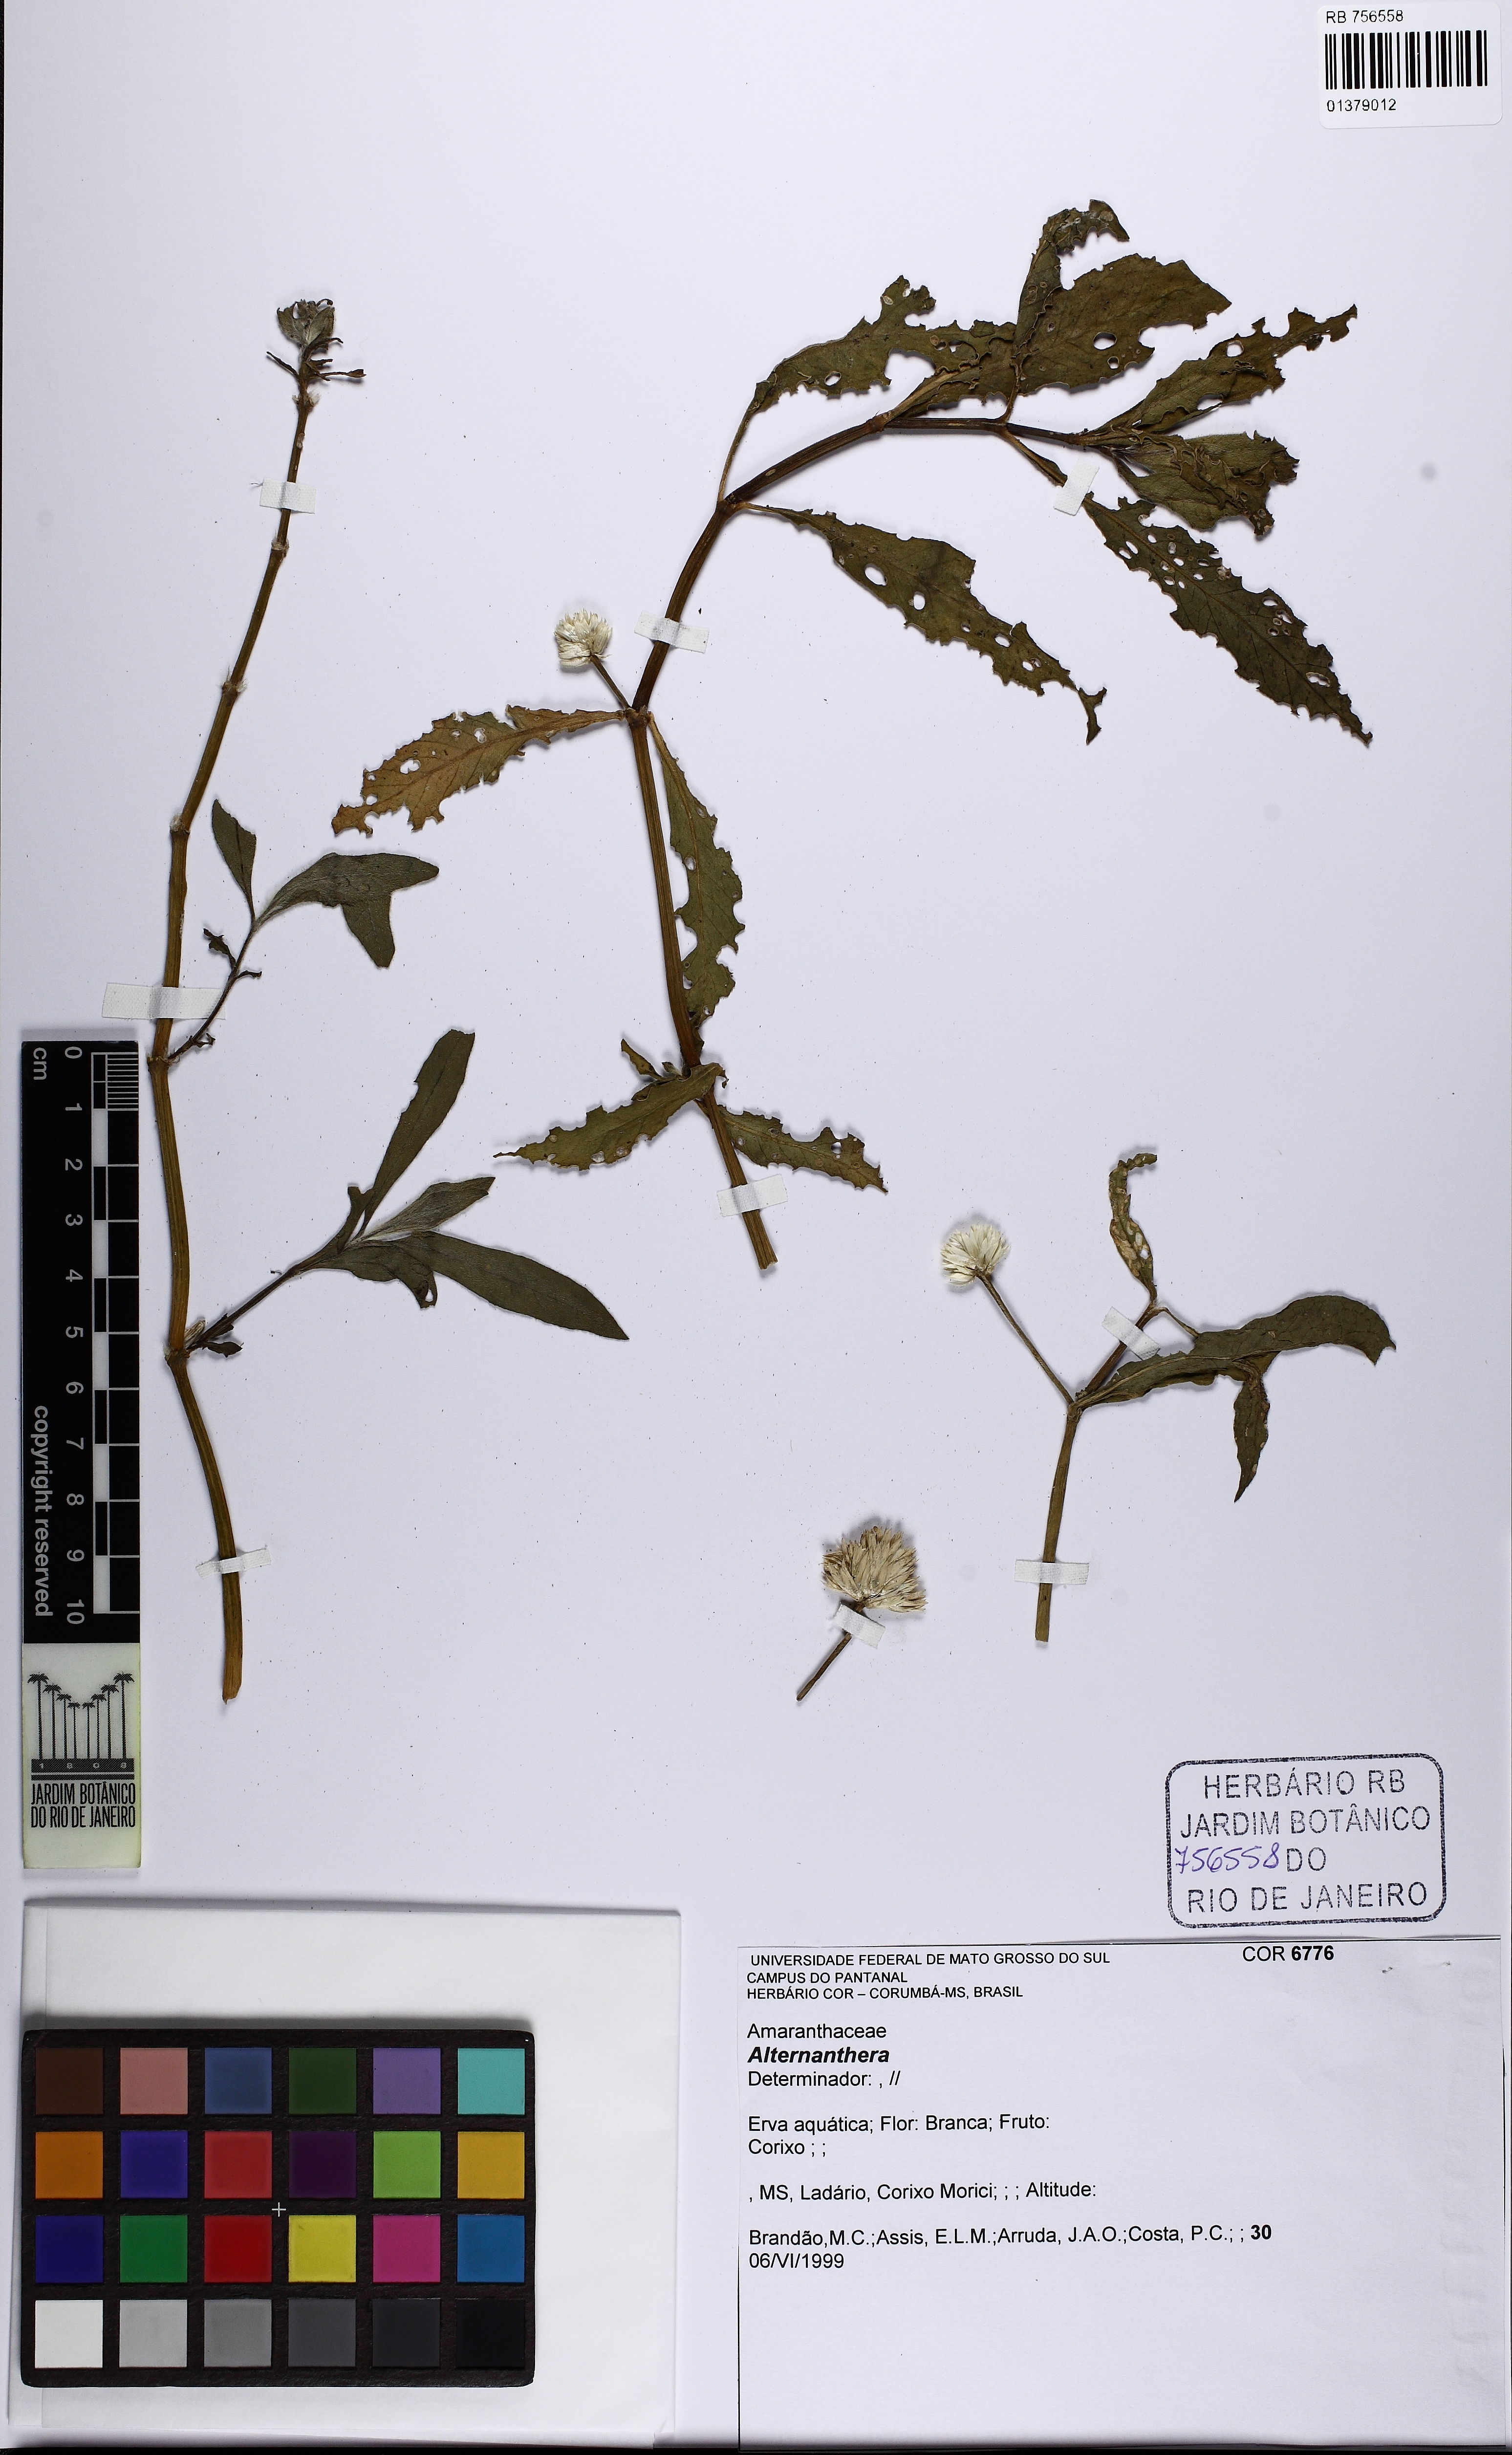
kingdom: Plantae
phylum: Tracheophyta
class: Magnoliopsida
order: Caryophyllales
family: Amaranthaceae
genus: Alternanthera
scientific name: Alternanthera
